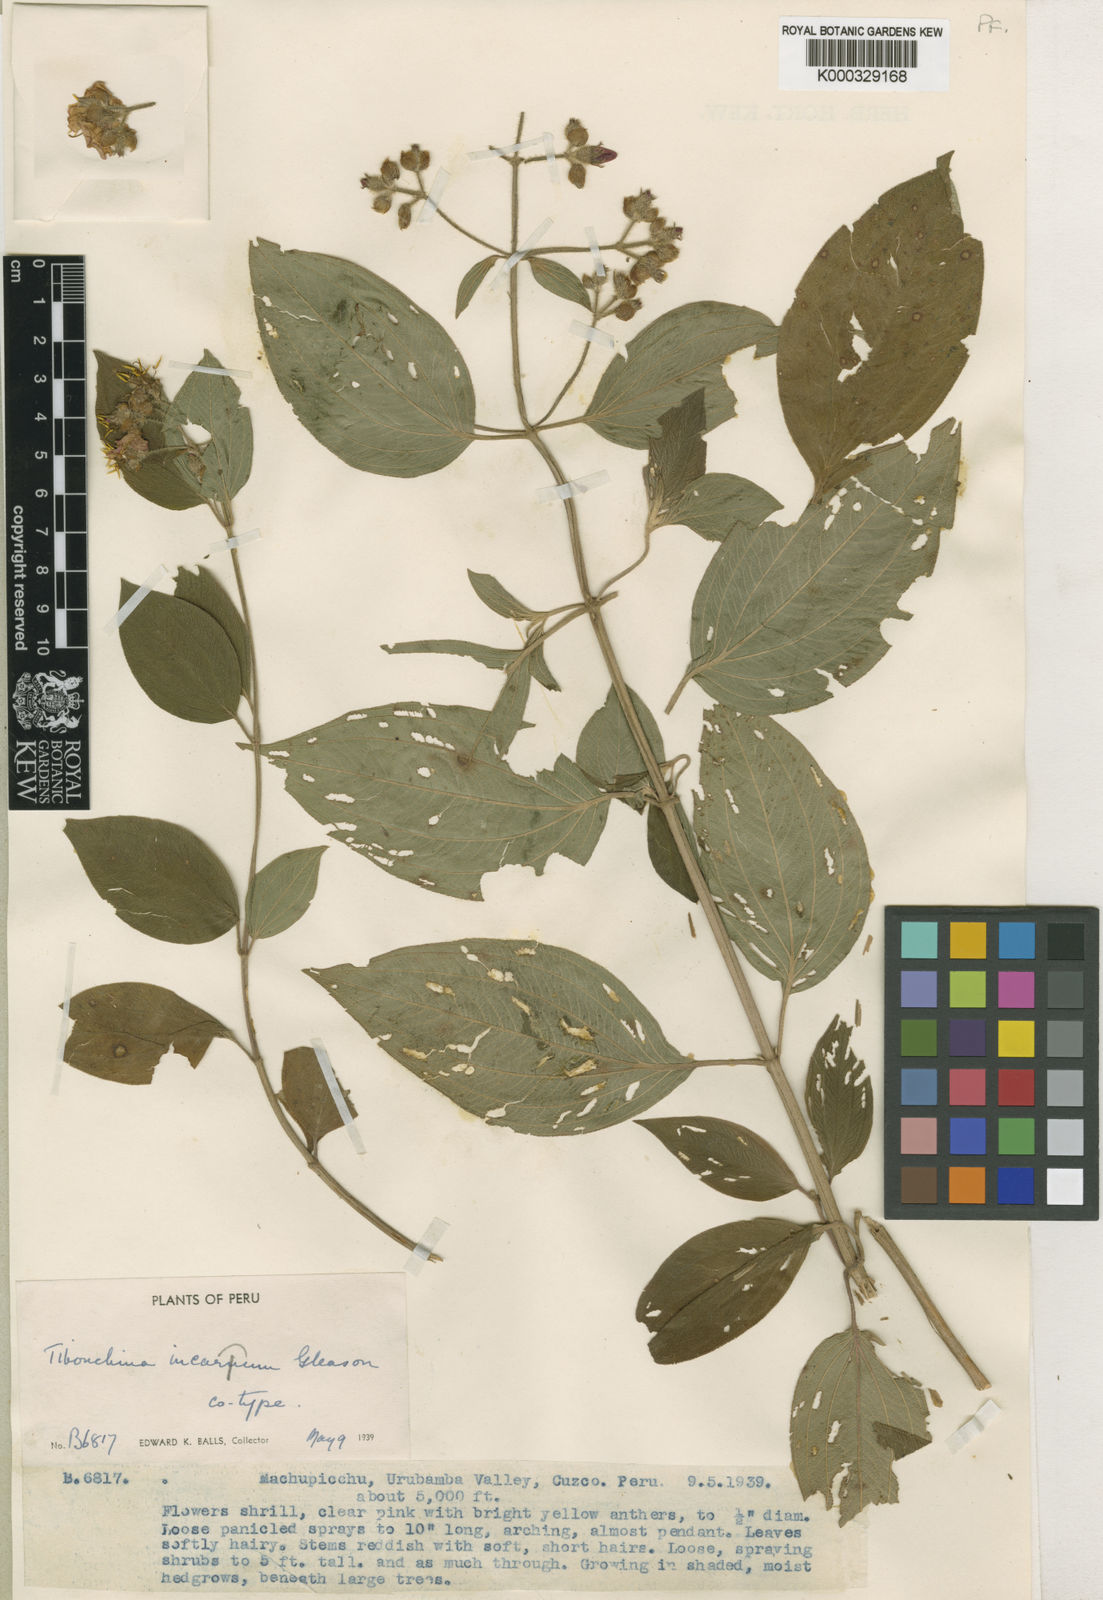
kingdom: Plantae
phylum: Tracheophyta
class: Magnoliopsida
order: Myrtales
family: Melastomataceae
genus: Chaetogastra
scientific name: Chaetogastra incarum
